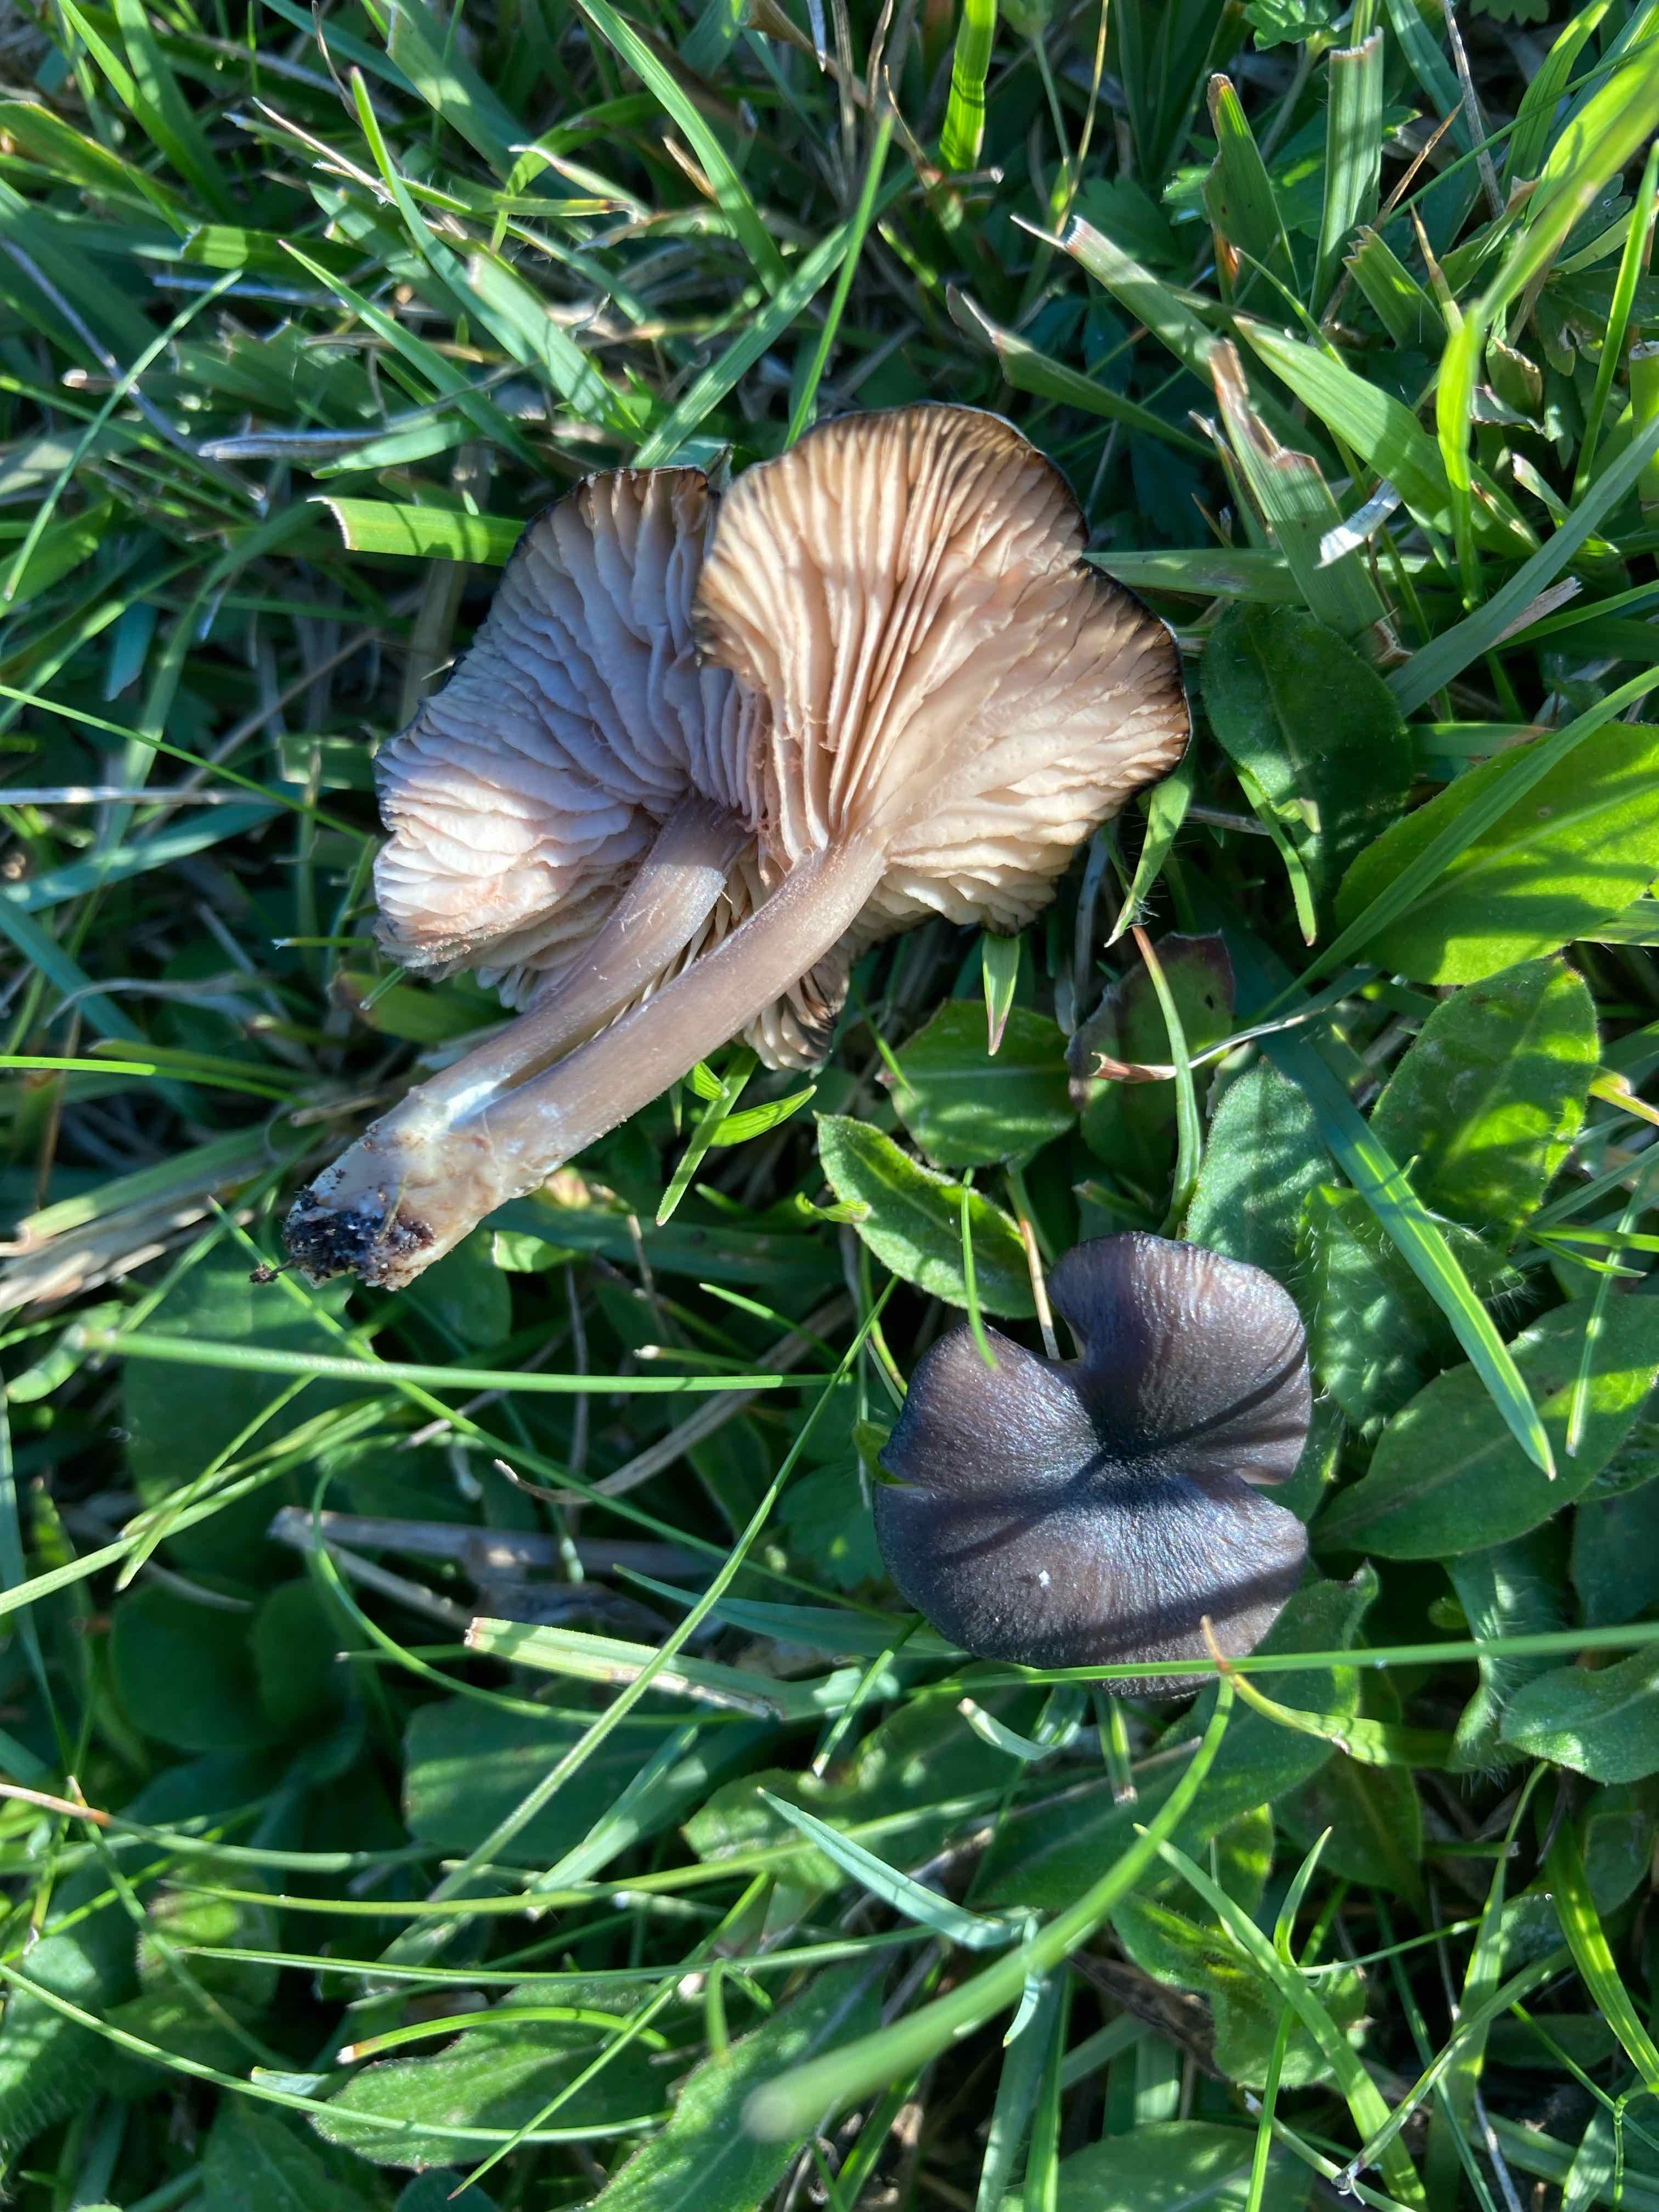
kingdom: Fungi
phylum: Basidiomycota
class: Agaricomycetes
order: Agaricales
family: Entolomataceae
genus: Entoloma
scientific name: Entoloma
